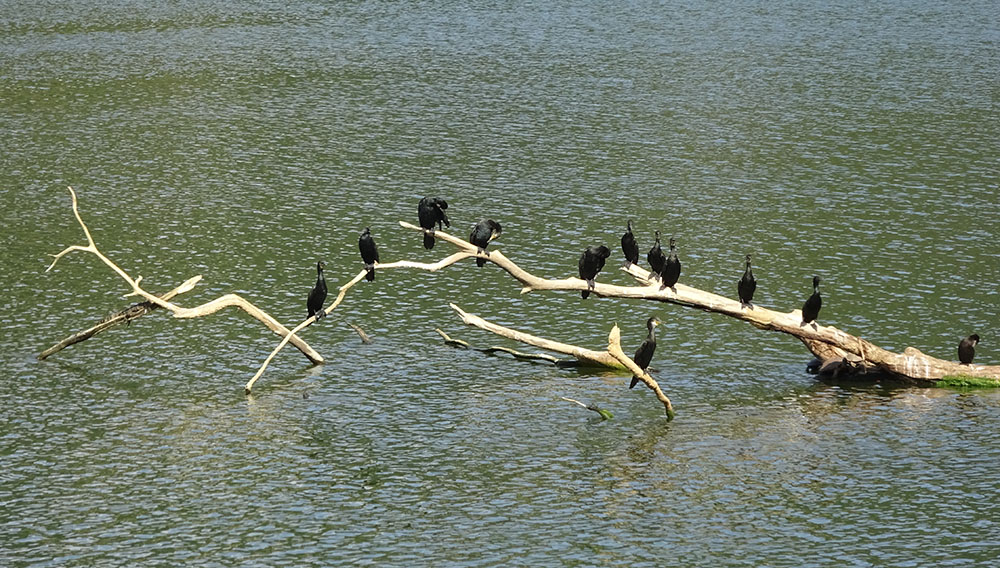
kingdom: Animalia
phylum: Chordata
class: Aves
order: Suliformes
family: Phalacrocoracidae
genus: Phalacrocorax
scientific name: Phalacrocorax fuscicollis
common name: Indian cormorant
